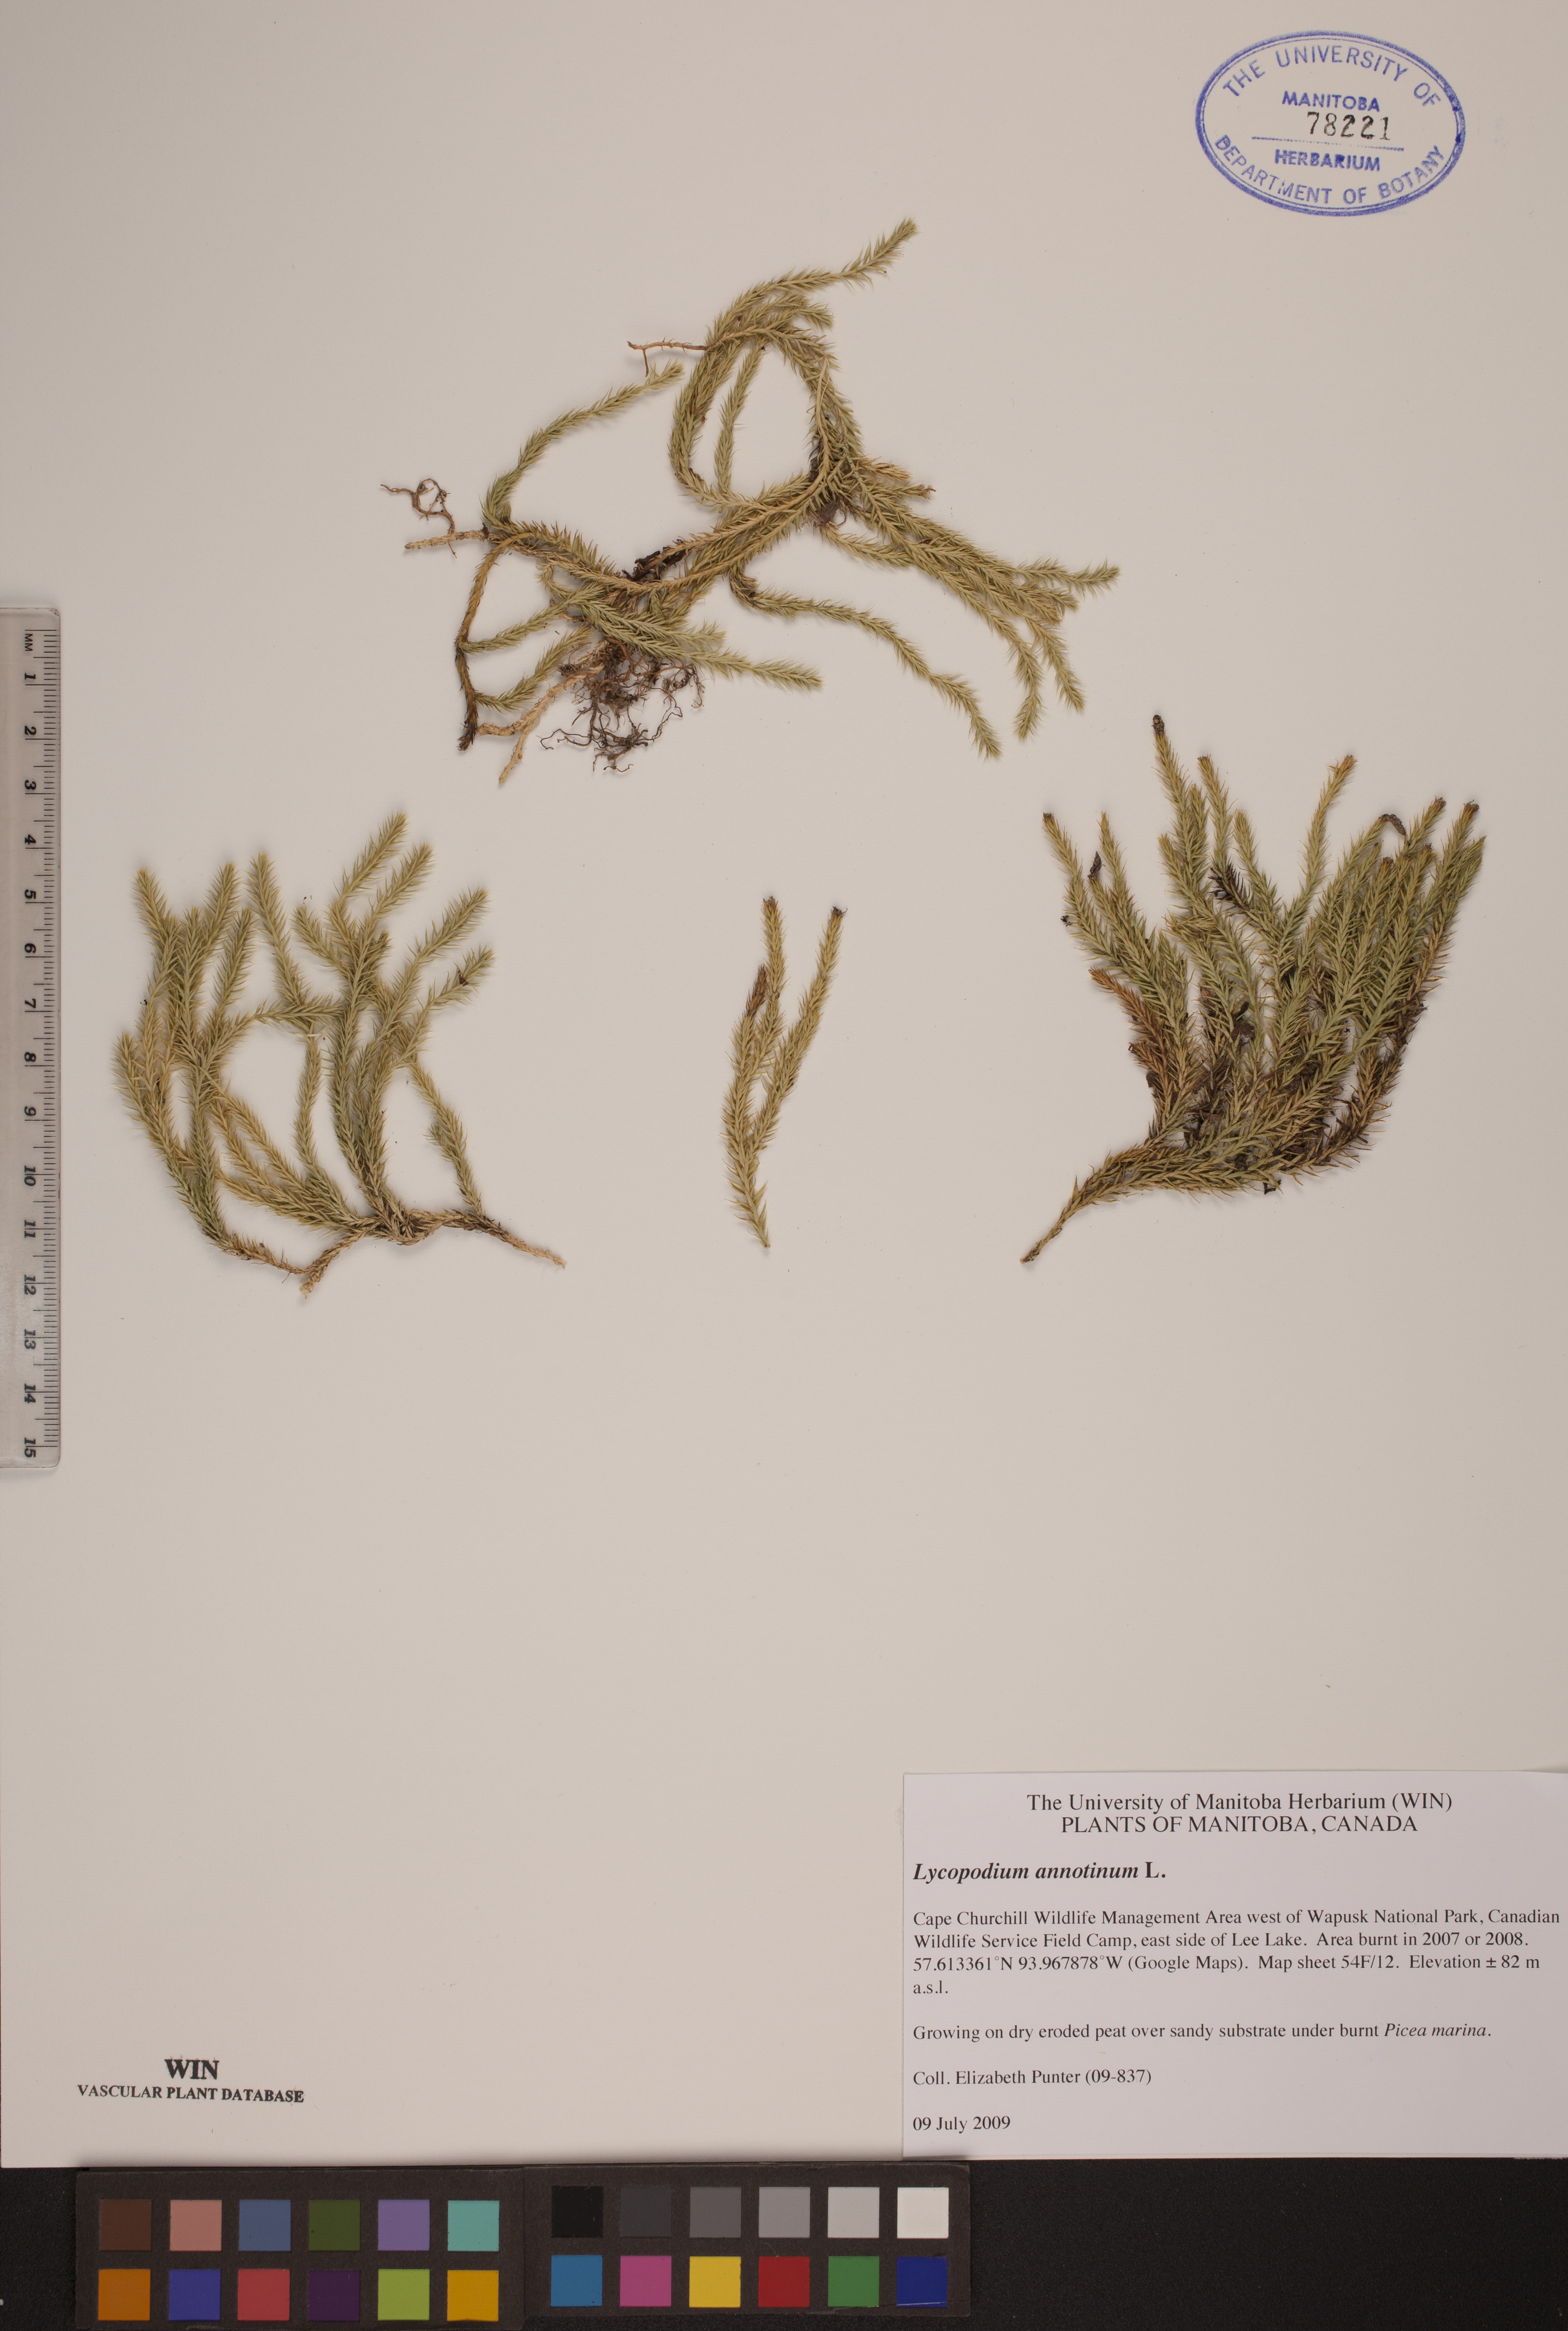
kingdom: Plantae
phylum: Tracheophyta
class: Lycopodiopsida
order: Lycopodiales
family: Lycopodiaceae
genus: Spinulum
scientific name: Spinulum annotinum
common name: Interrupted club-moss
